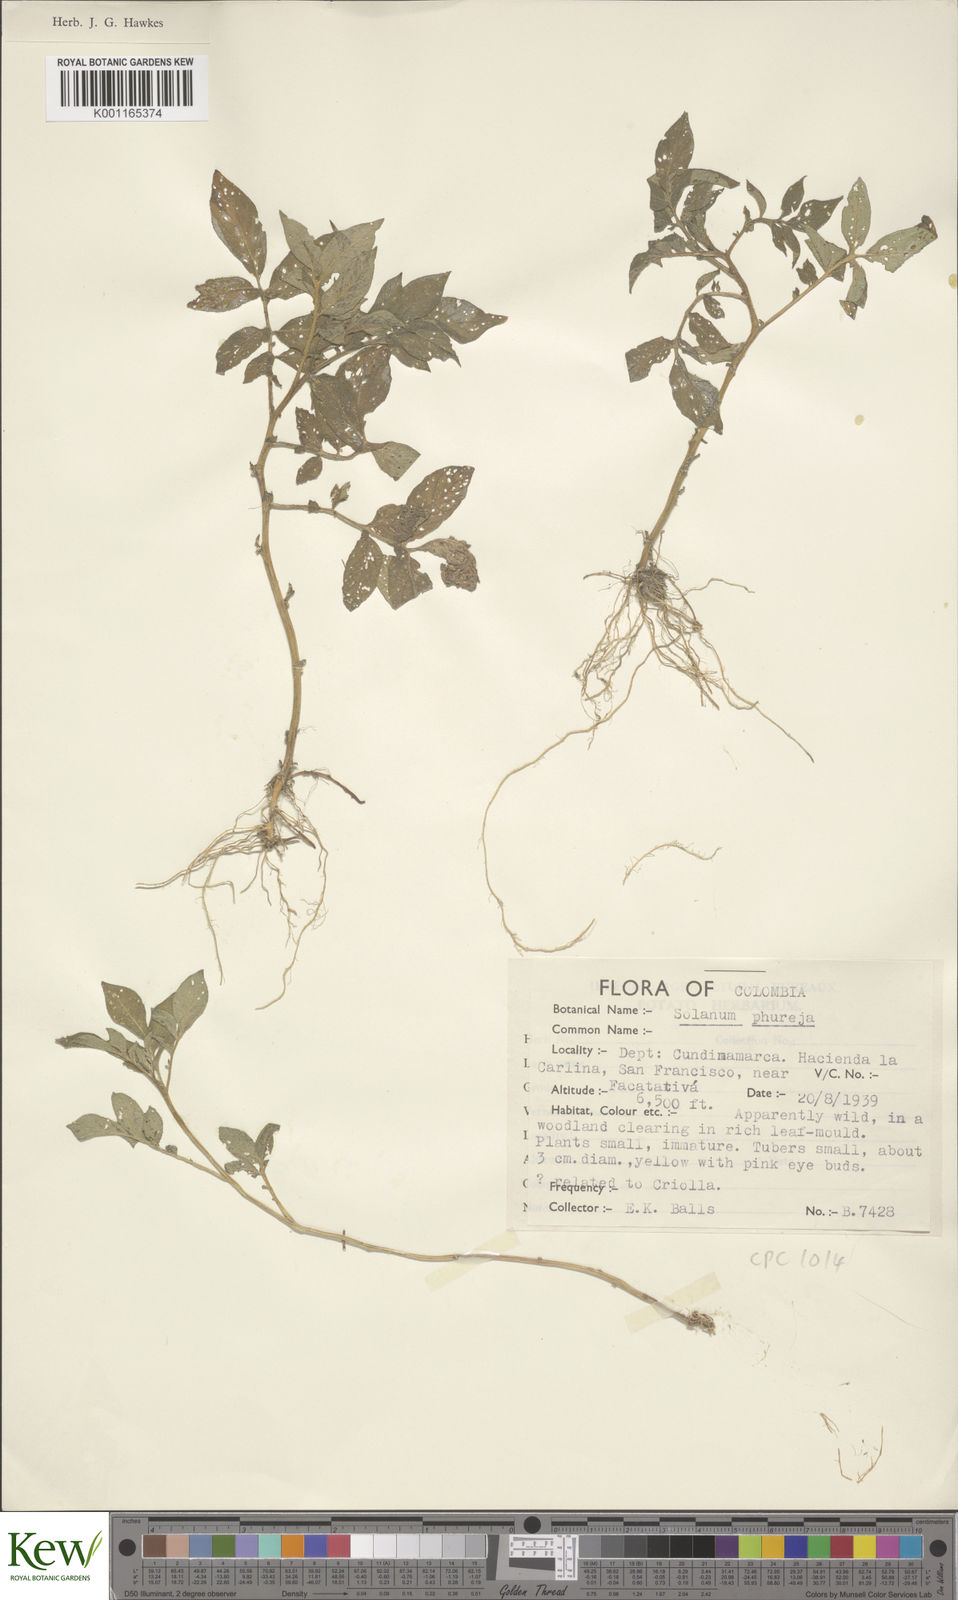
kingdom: Plantae
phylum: Tracheophyta
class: Magnoliopsida
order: Solanales
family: Solanaceae
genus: Solanum
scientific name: Solanum tuberosum
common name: Potato
